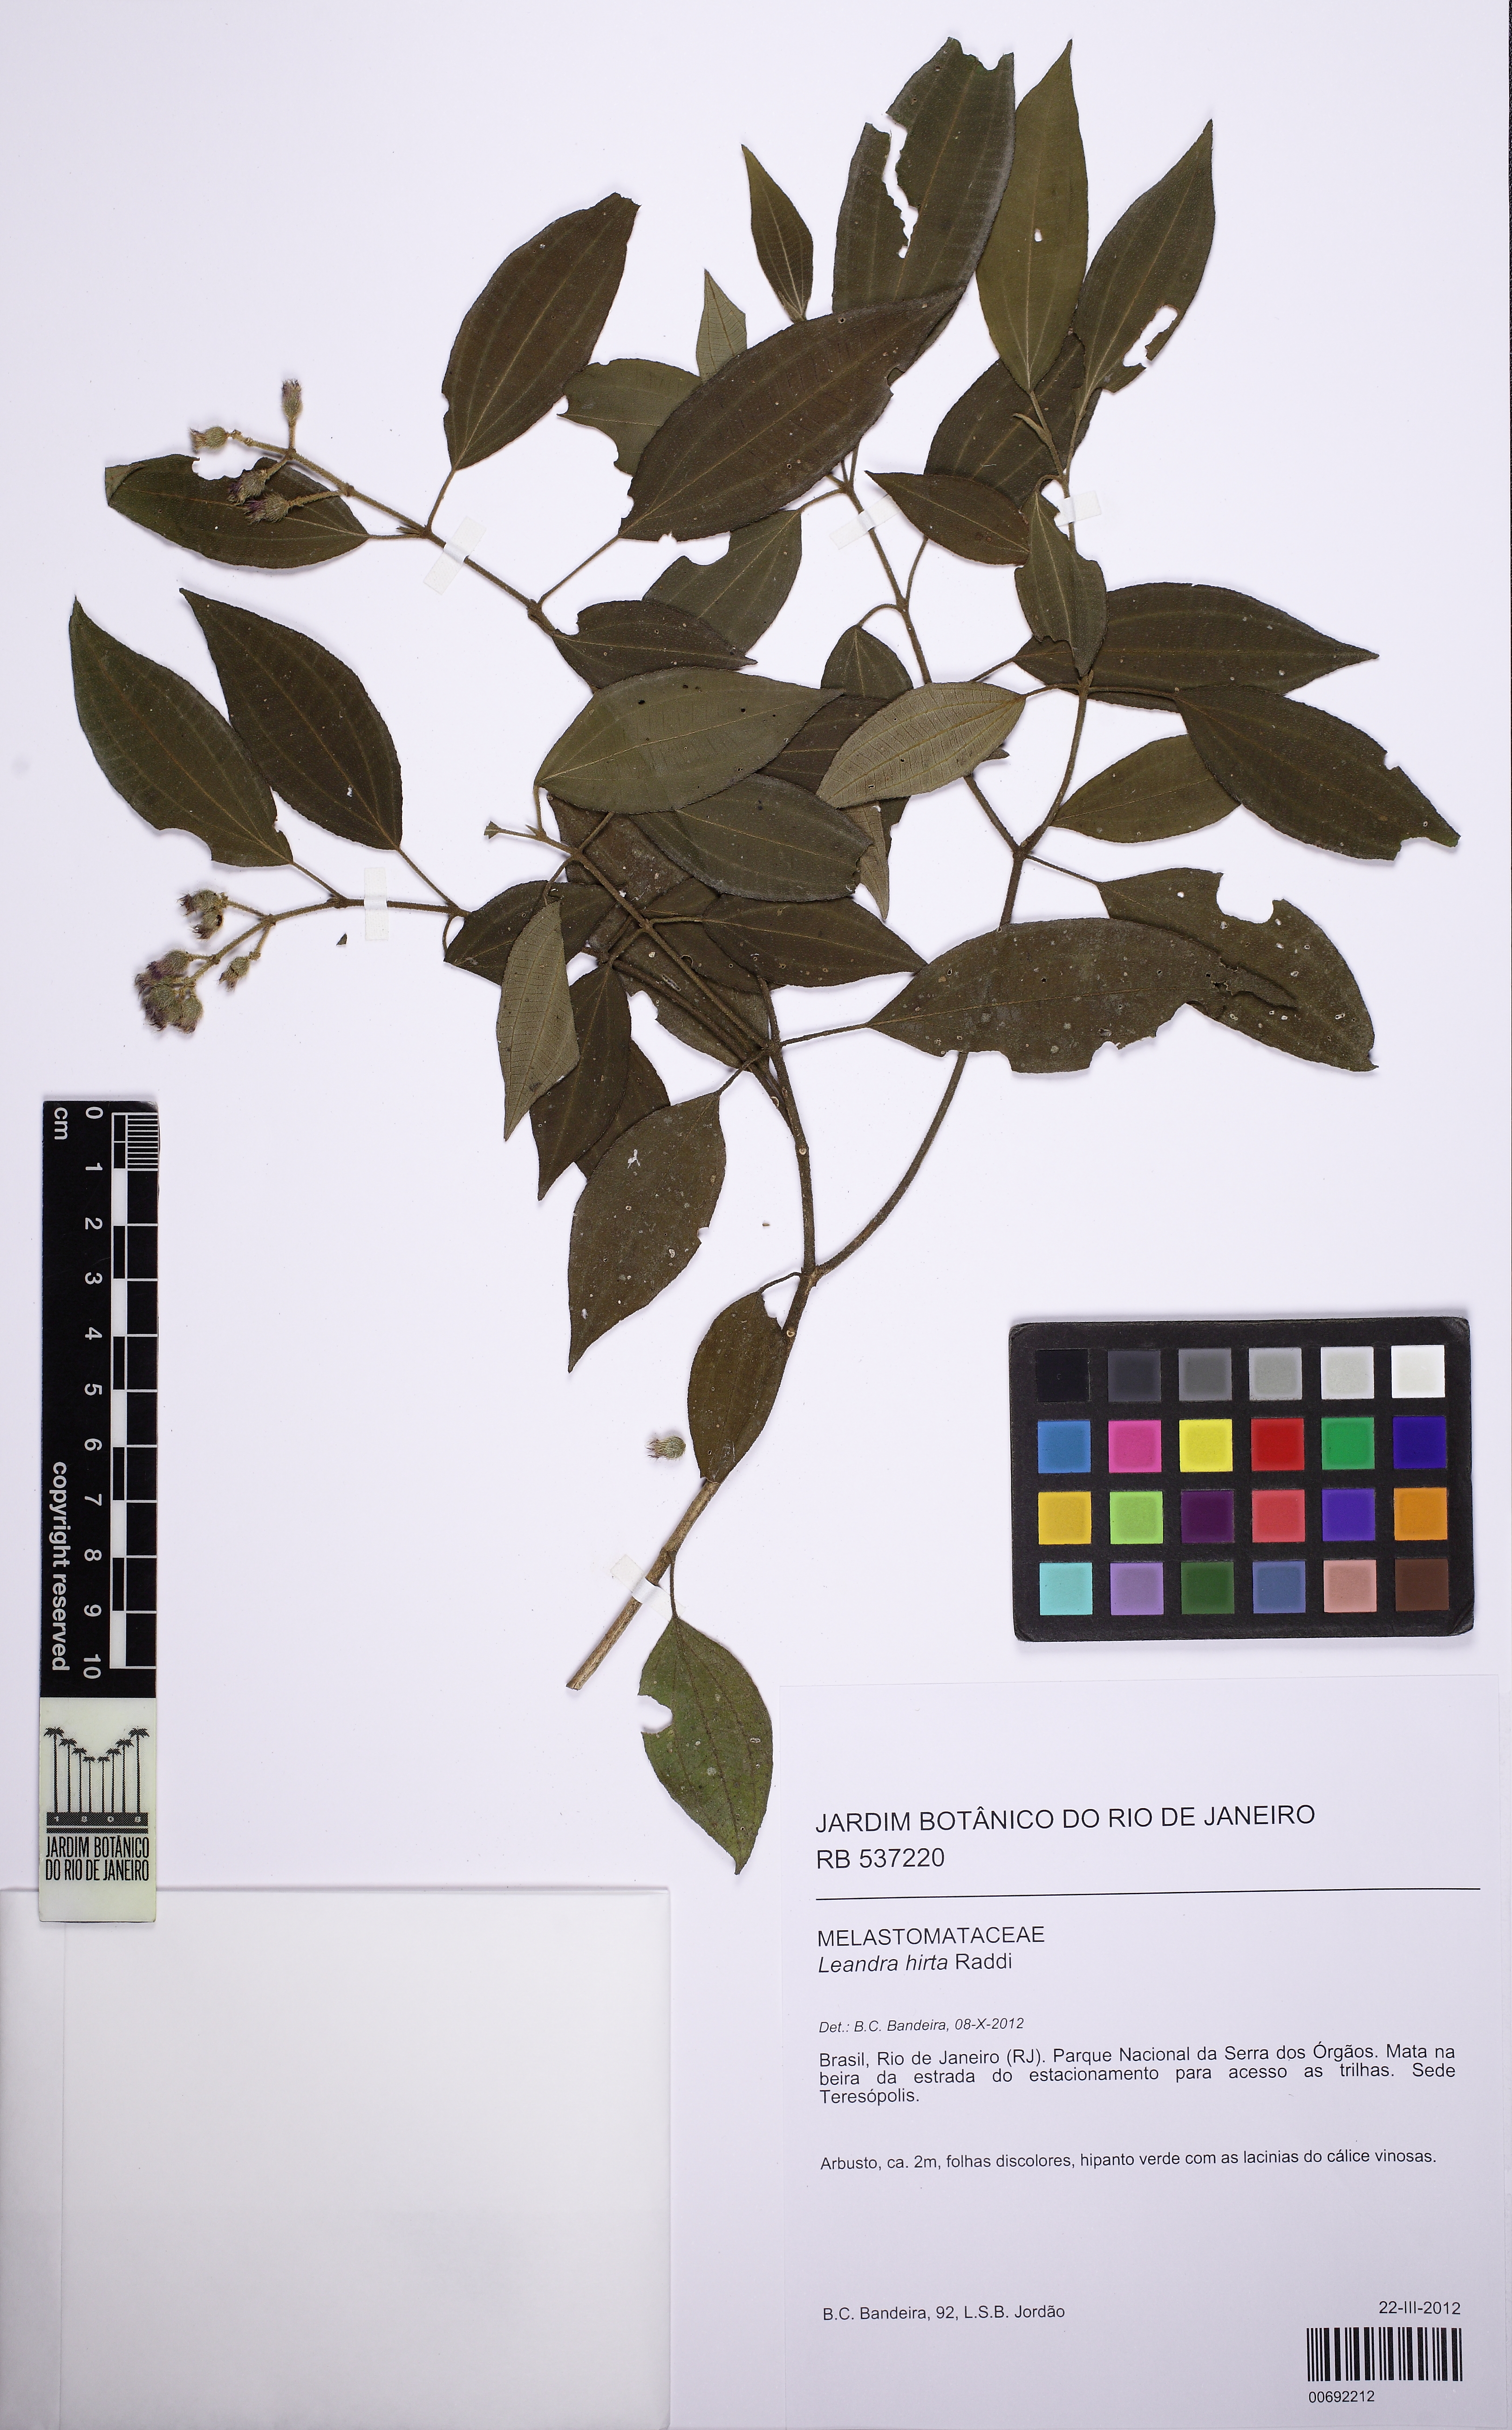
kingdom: Plantae
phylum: Tracheophyta
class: Magnoliopsida
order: Myrtales
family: Melastomataceae
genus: Miconia
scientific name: Miconia dubia
